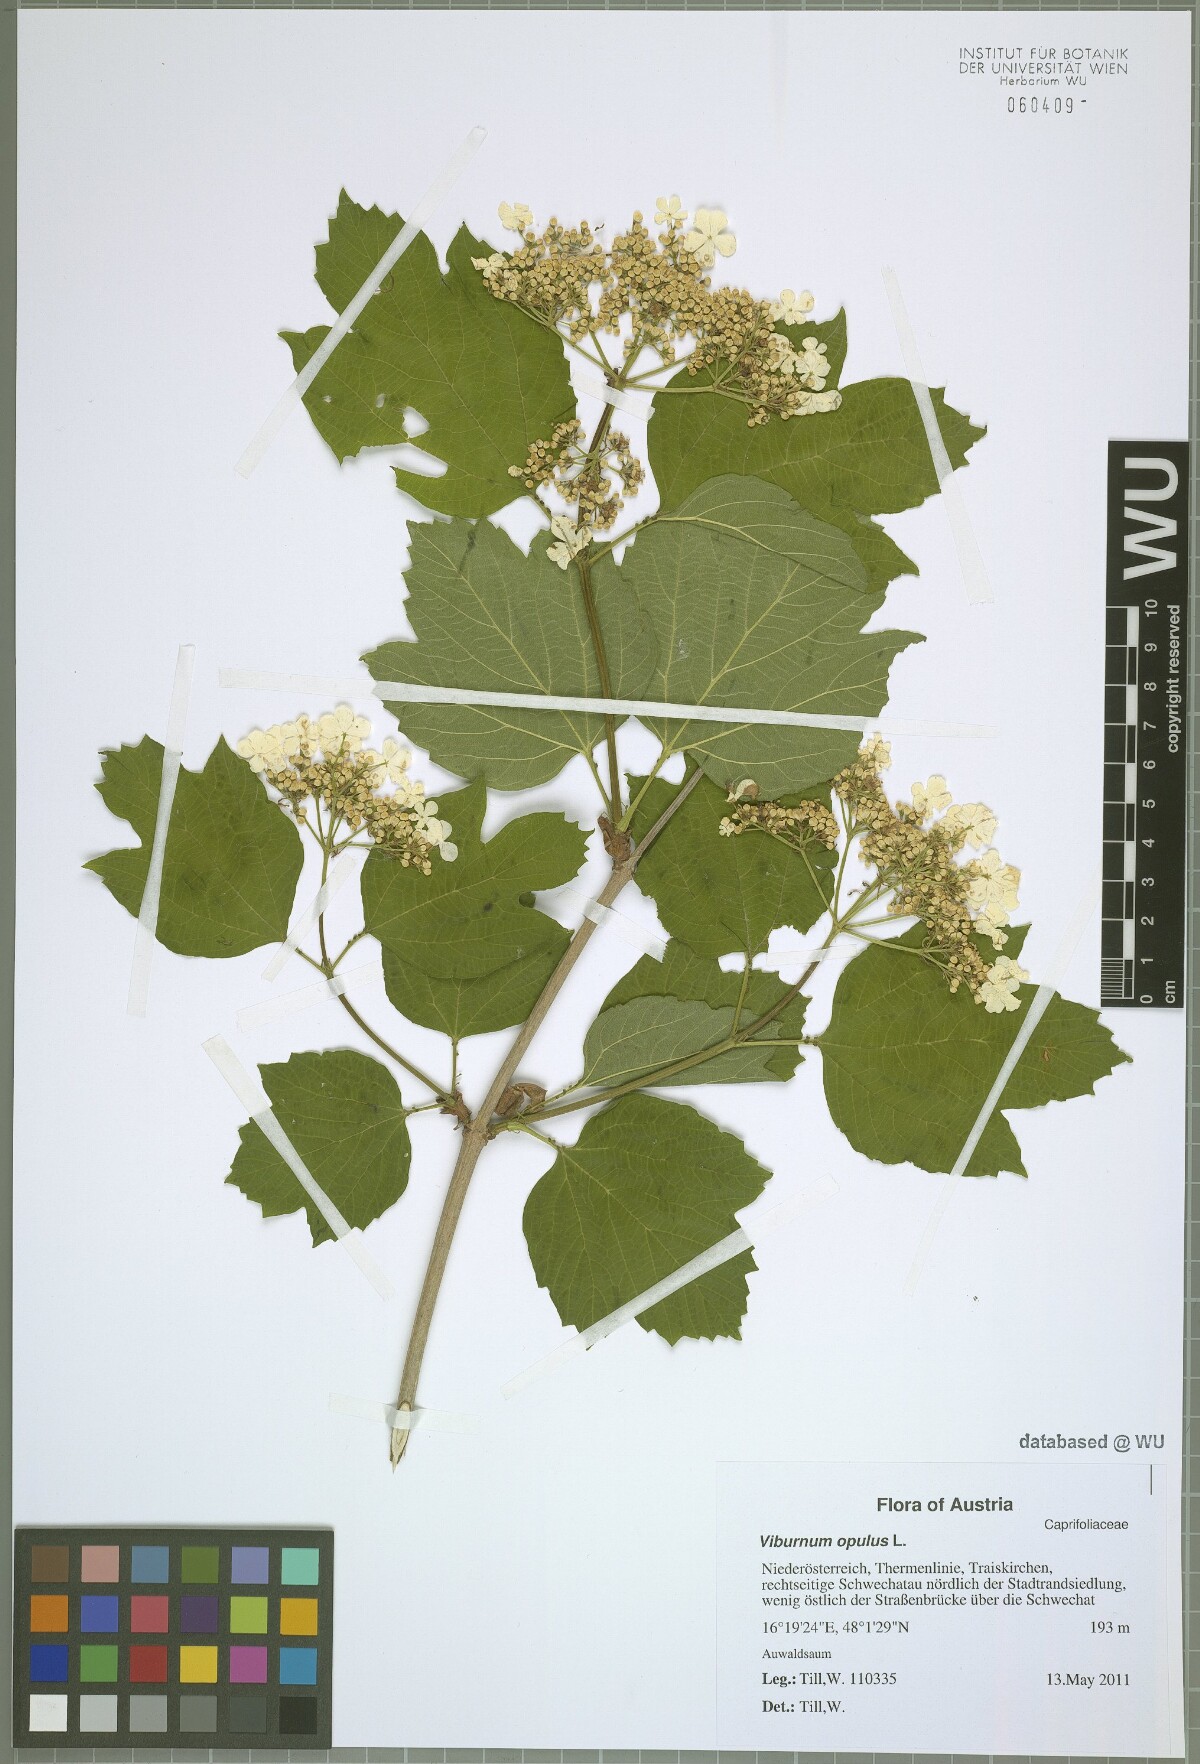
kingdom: Plantae
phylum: Tracheophyta
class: Magnoliopsida
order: Dipsacales
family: Viburnaceae
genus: Viburnum
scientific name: Viburnum opulus
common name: Guelder-rose
